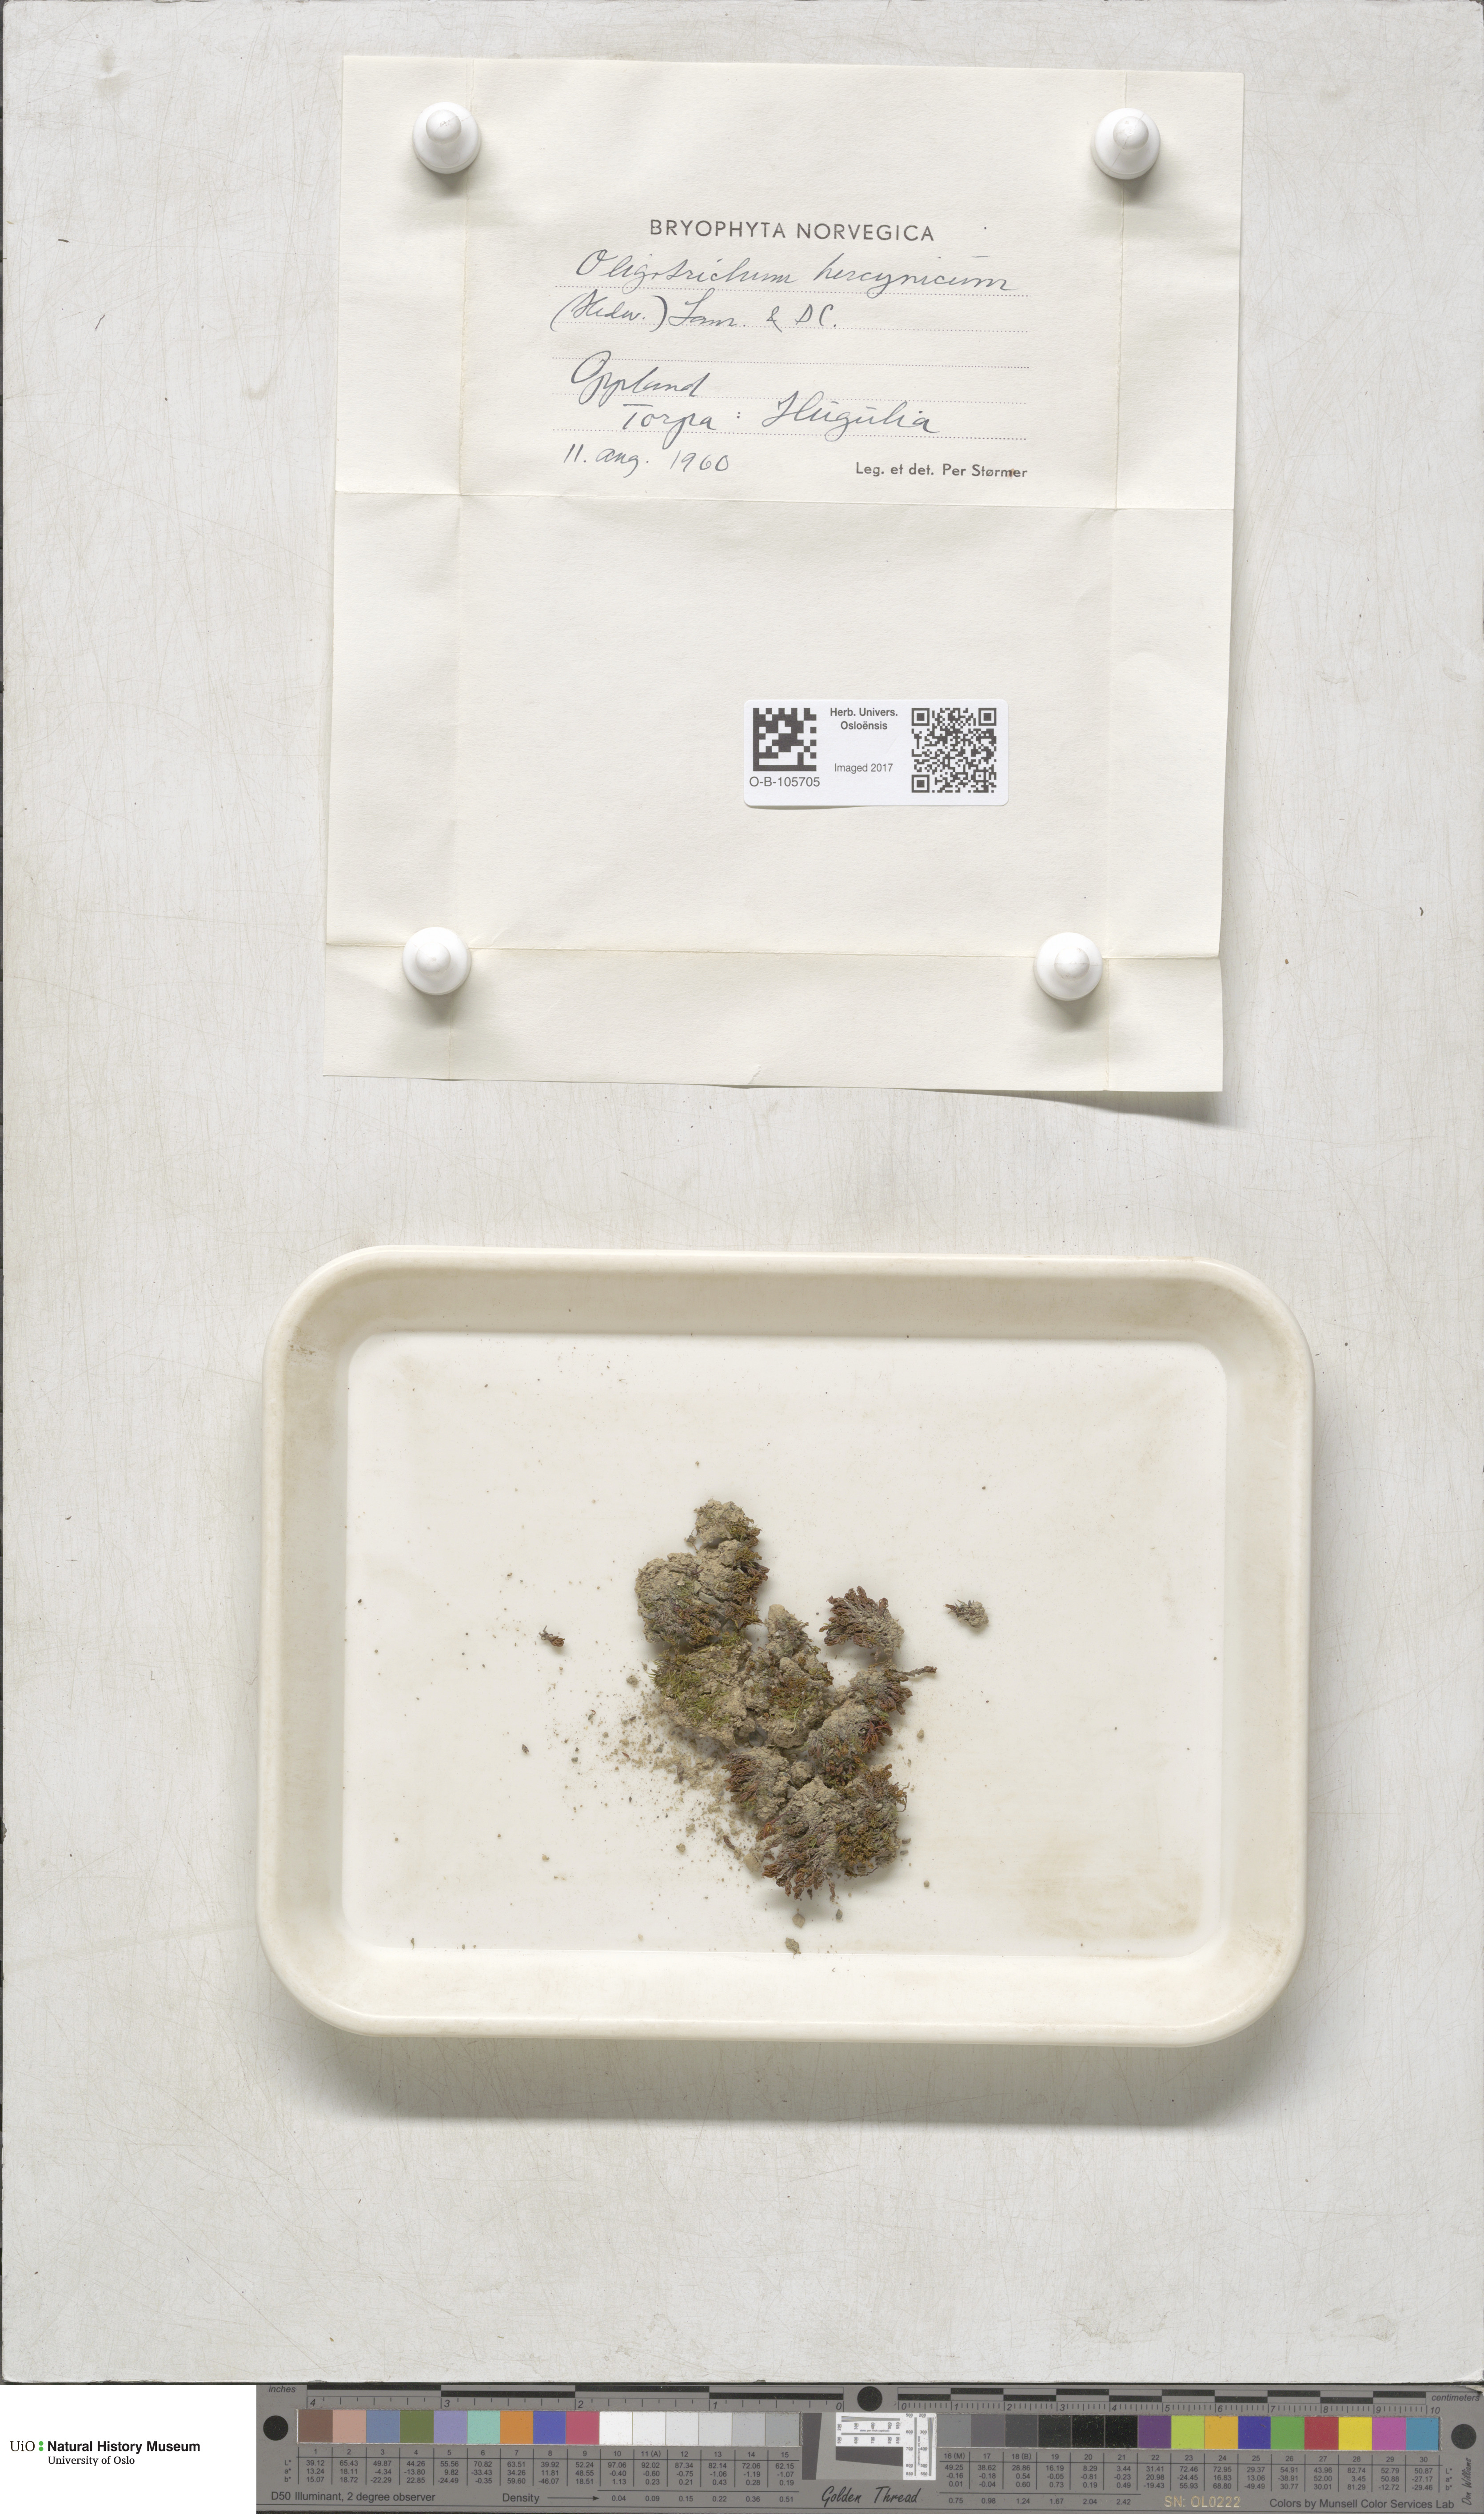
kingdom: Plantae
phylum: Bryophyta
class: Polytrichopsida
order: Polytrichales
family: Polytrichaceae
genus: Oligotrichum
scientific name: Oligotrichum hercynicum
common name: Hercynian hair moss
